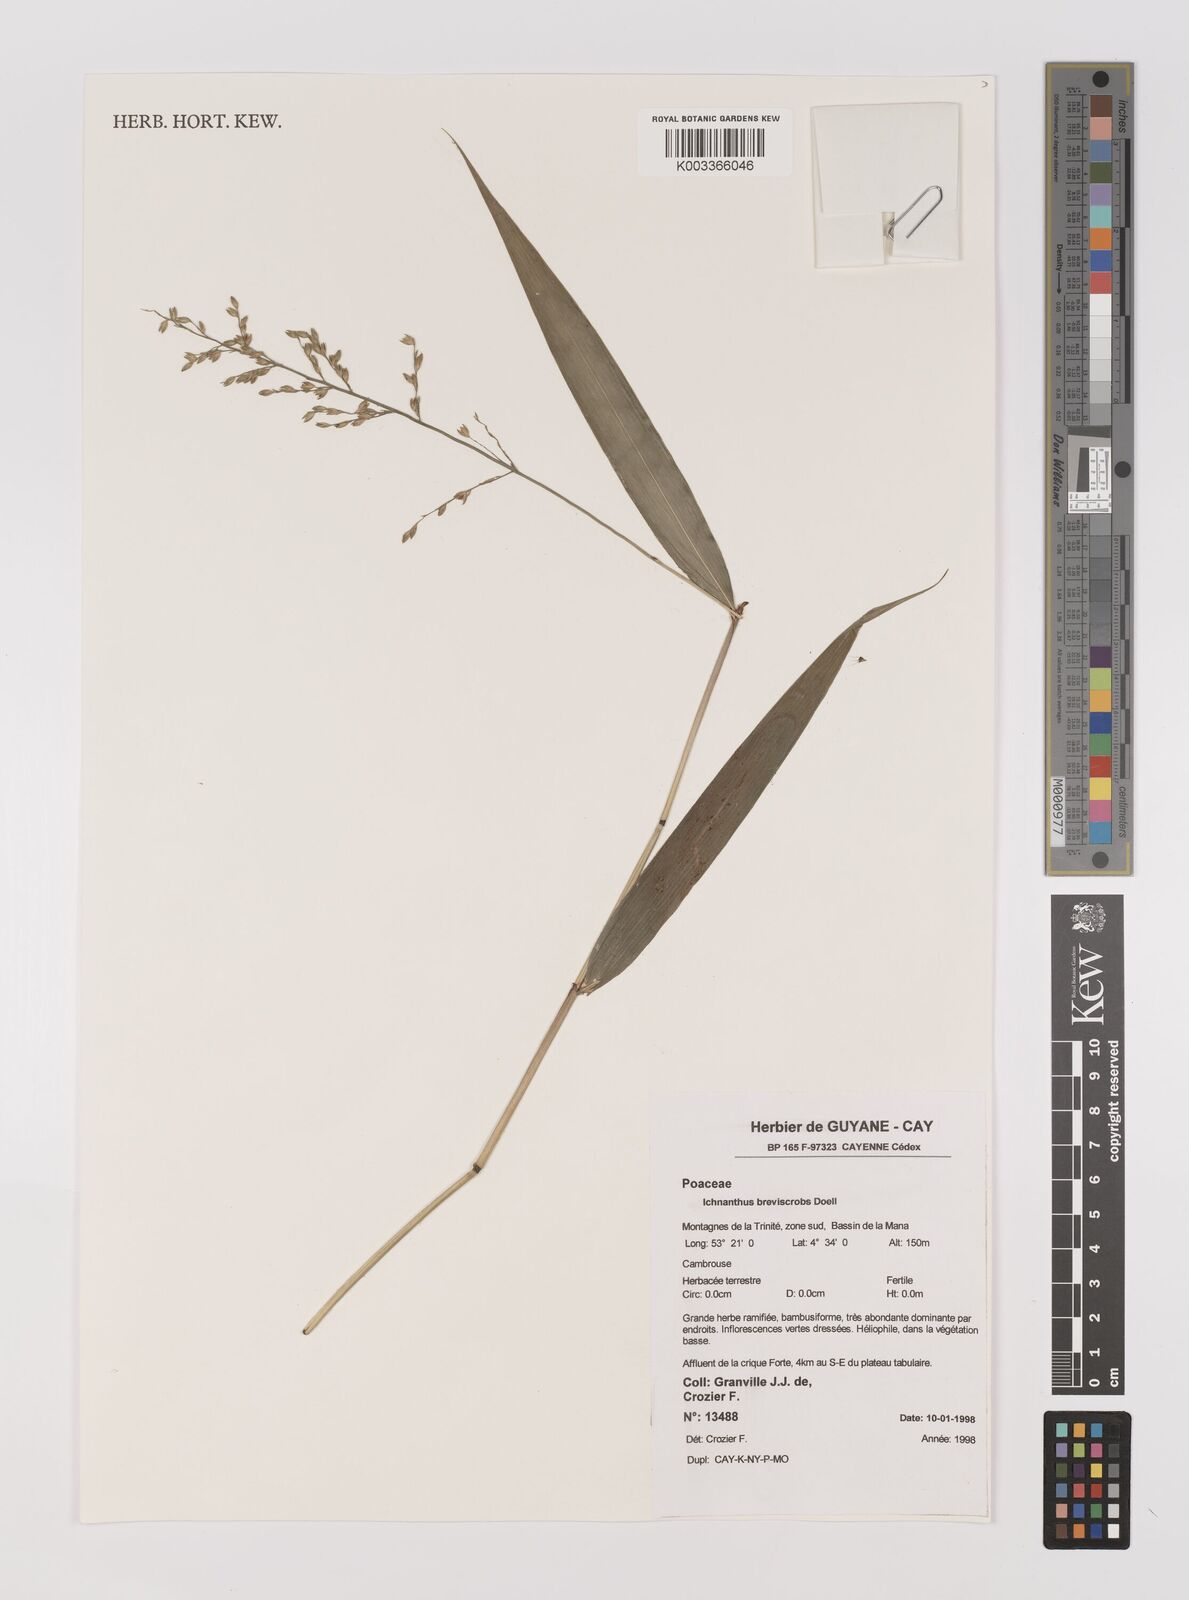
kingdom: Plantae
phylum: Tracheophyta
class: Liliopsida
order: Poales
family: Poaceae
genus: Ichnanthus
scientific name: Ichnanthus breviscrobs
